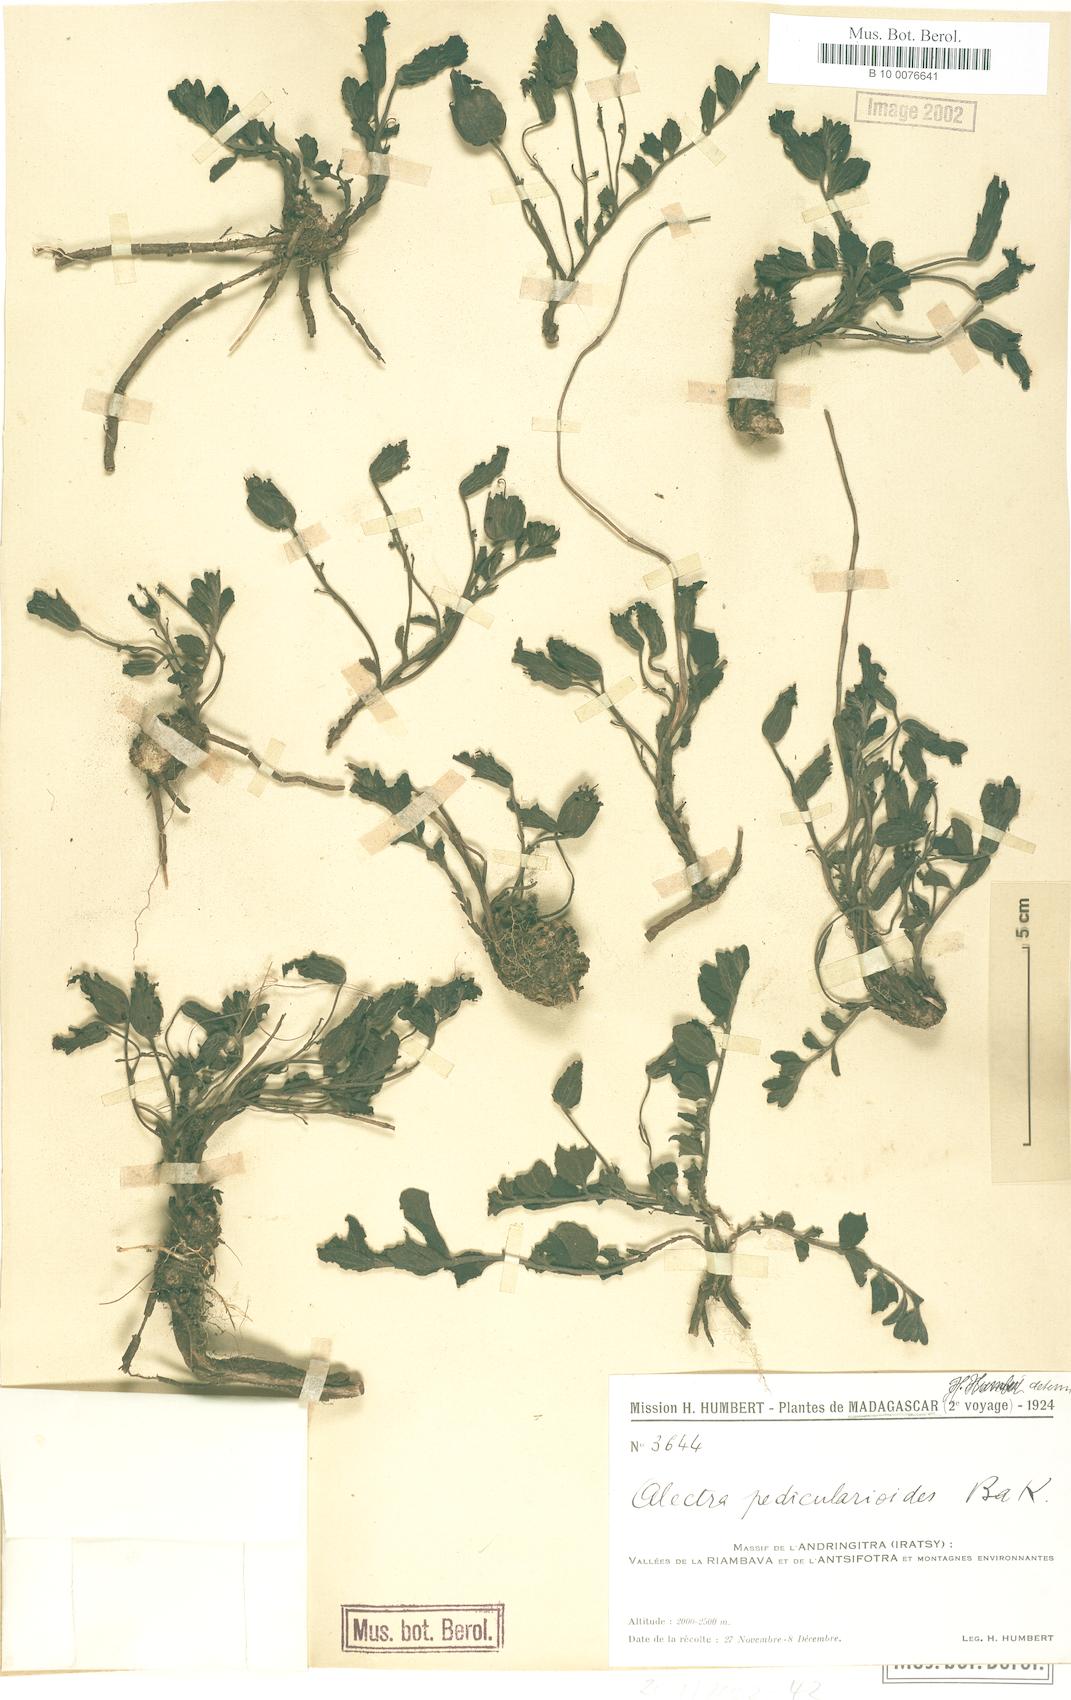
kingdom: Plantae
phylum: Tracheophyta
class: Magnoliopsida
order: Lamiales
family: Orobanchaceae
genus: Pseudomelasma
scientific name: Pseudomelasma pedicularioides
